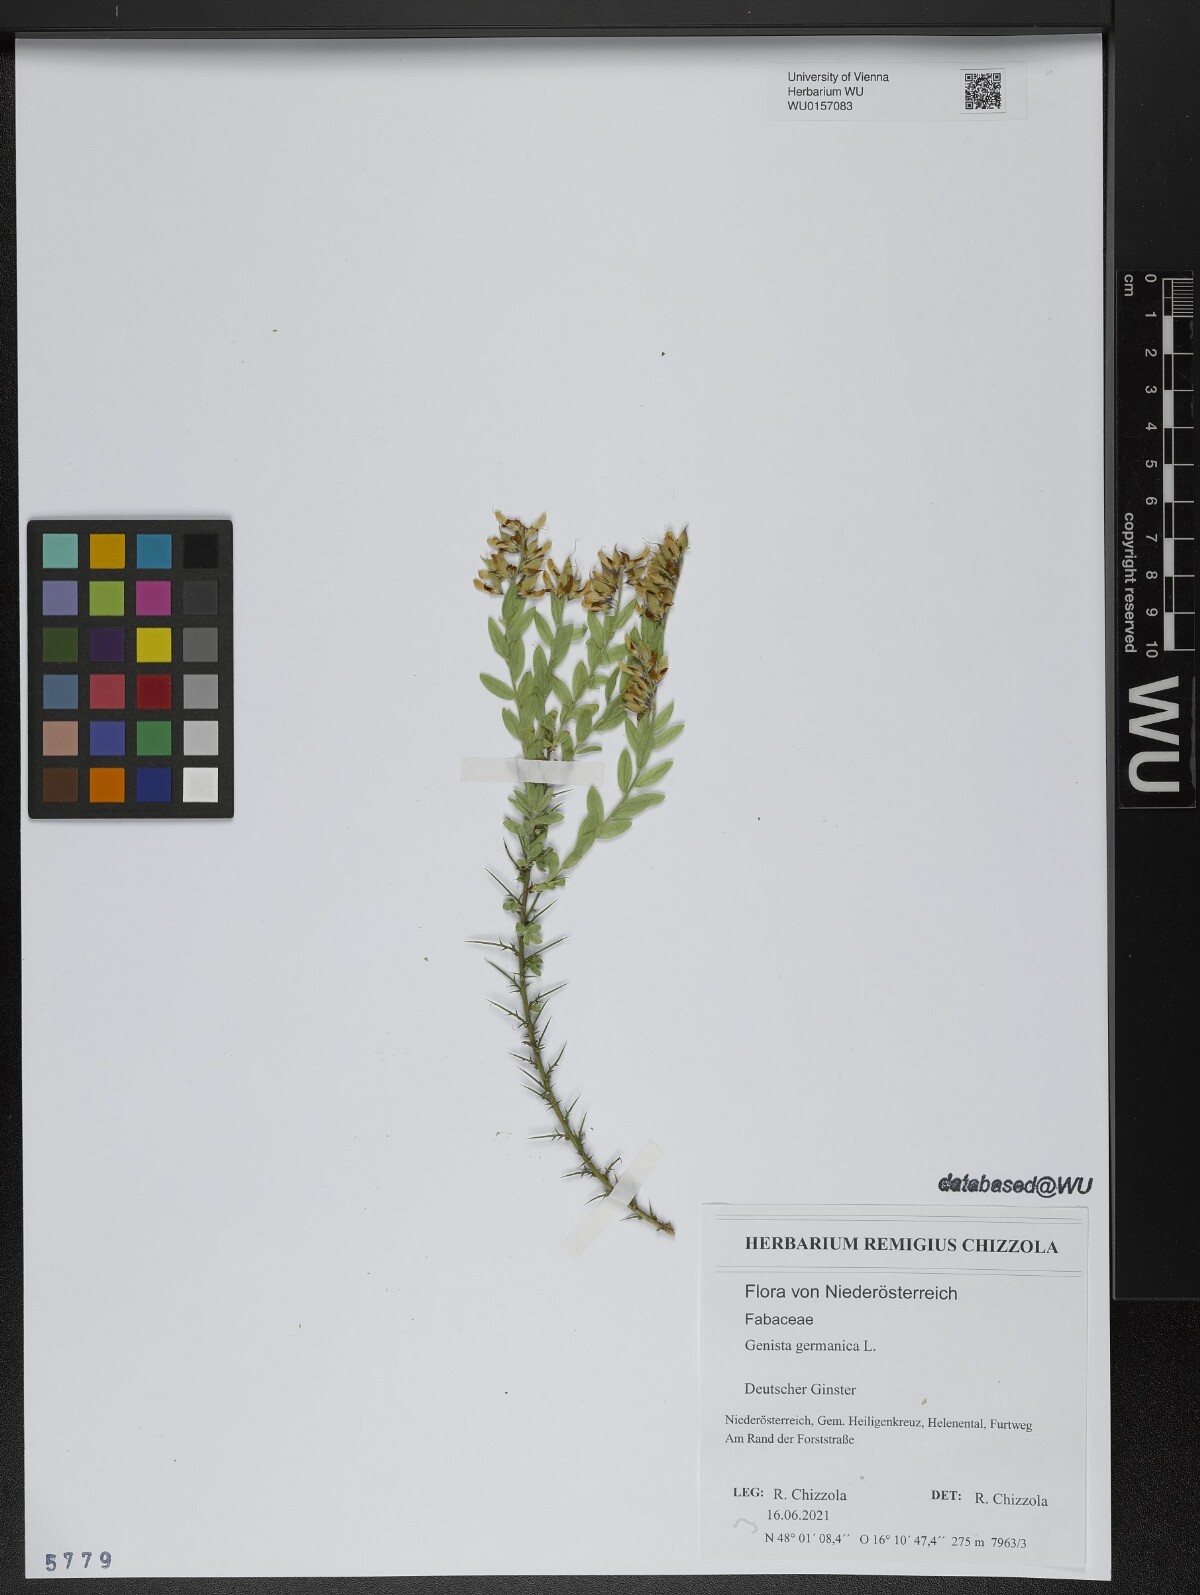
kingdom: Plantae
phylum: Tracheophyta
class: Magnoliopsida
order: Fabales
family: Fabaceae
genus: Genista
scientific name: Genista germanica
